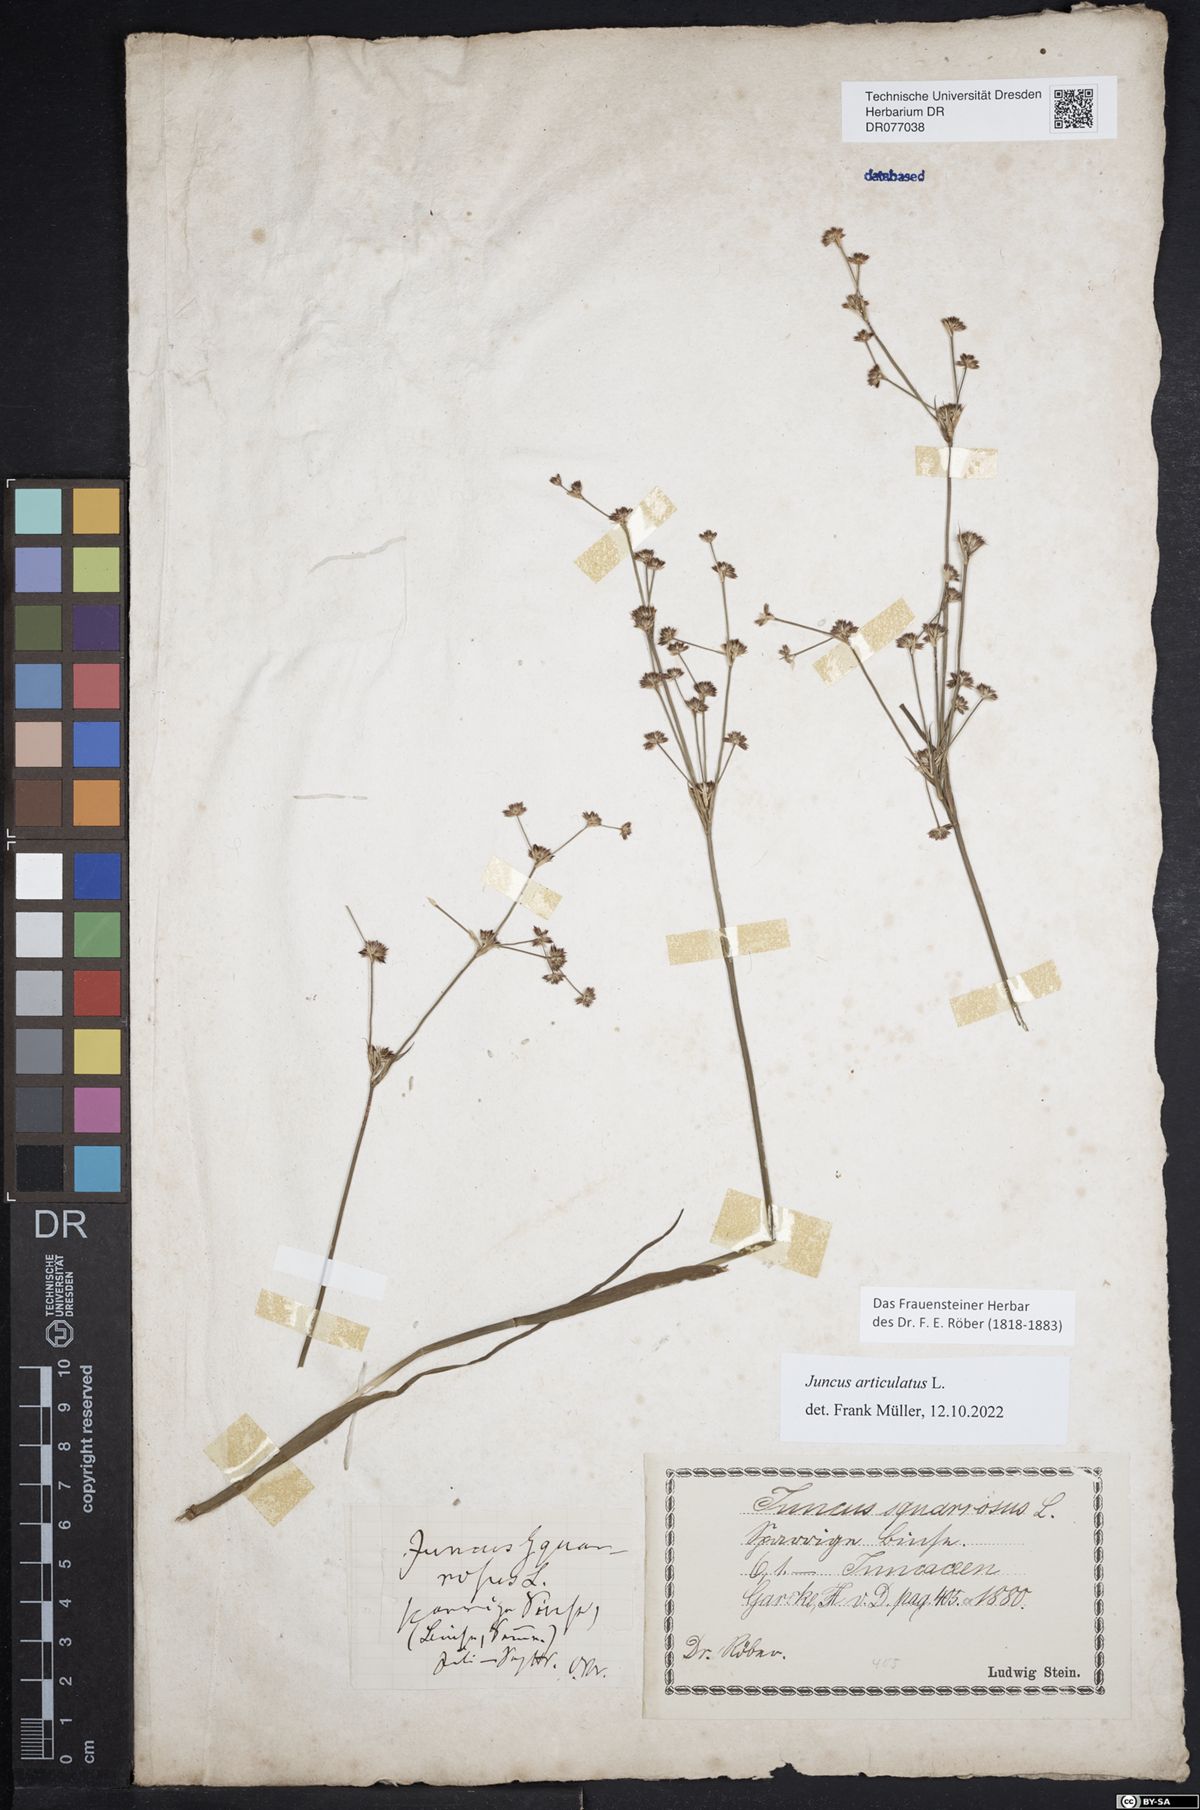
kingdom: Plantae
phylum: Tracheophyta
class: Liliopsida
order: Poales
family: Juncaceae
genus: Juncus
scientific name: Juncus articulatus
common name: Jointed rush
